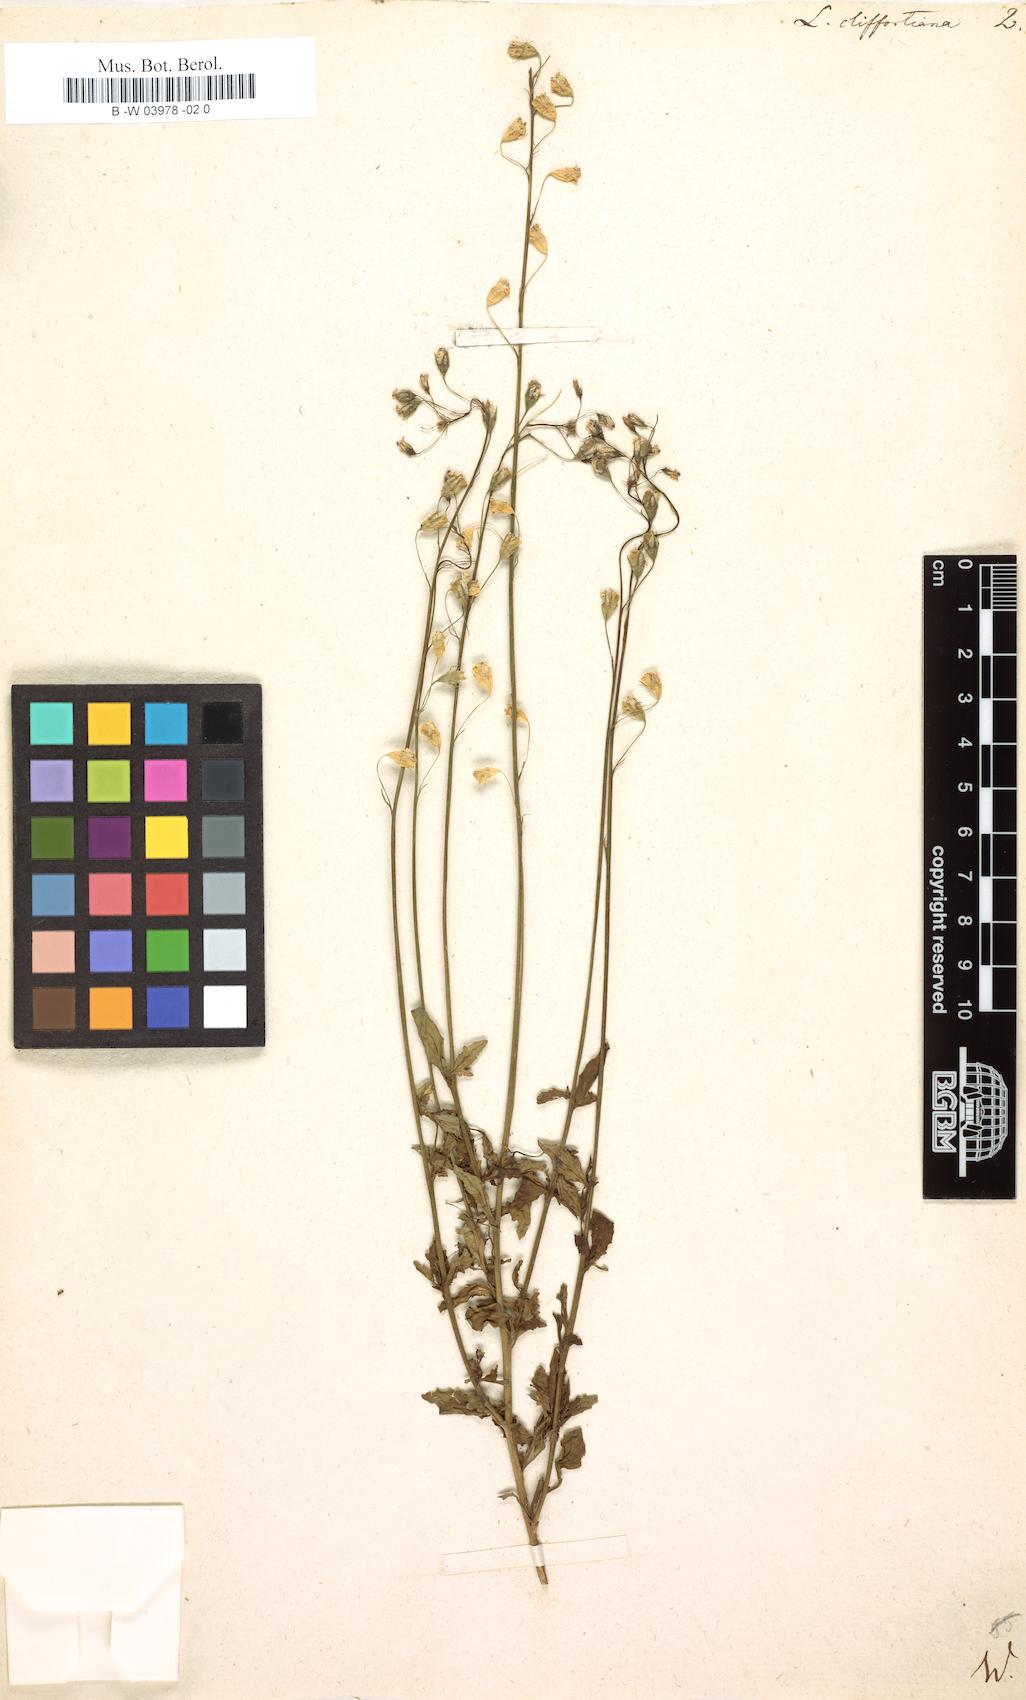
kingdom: Plantae
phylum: Tracheophyta
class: Magnoliopsida
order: Asterales
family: Campanulaceae
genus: Lobelia
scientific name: Lobelia cliffortiana
